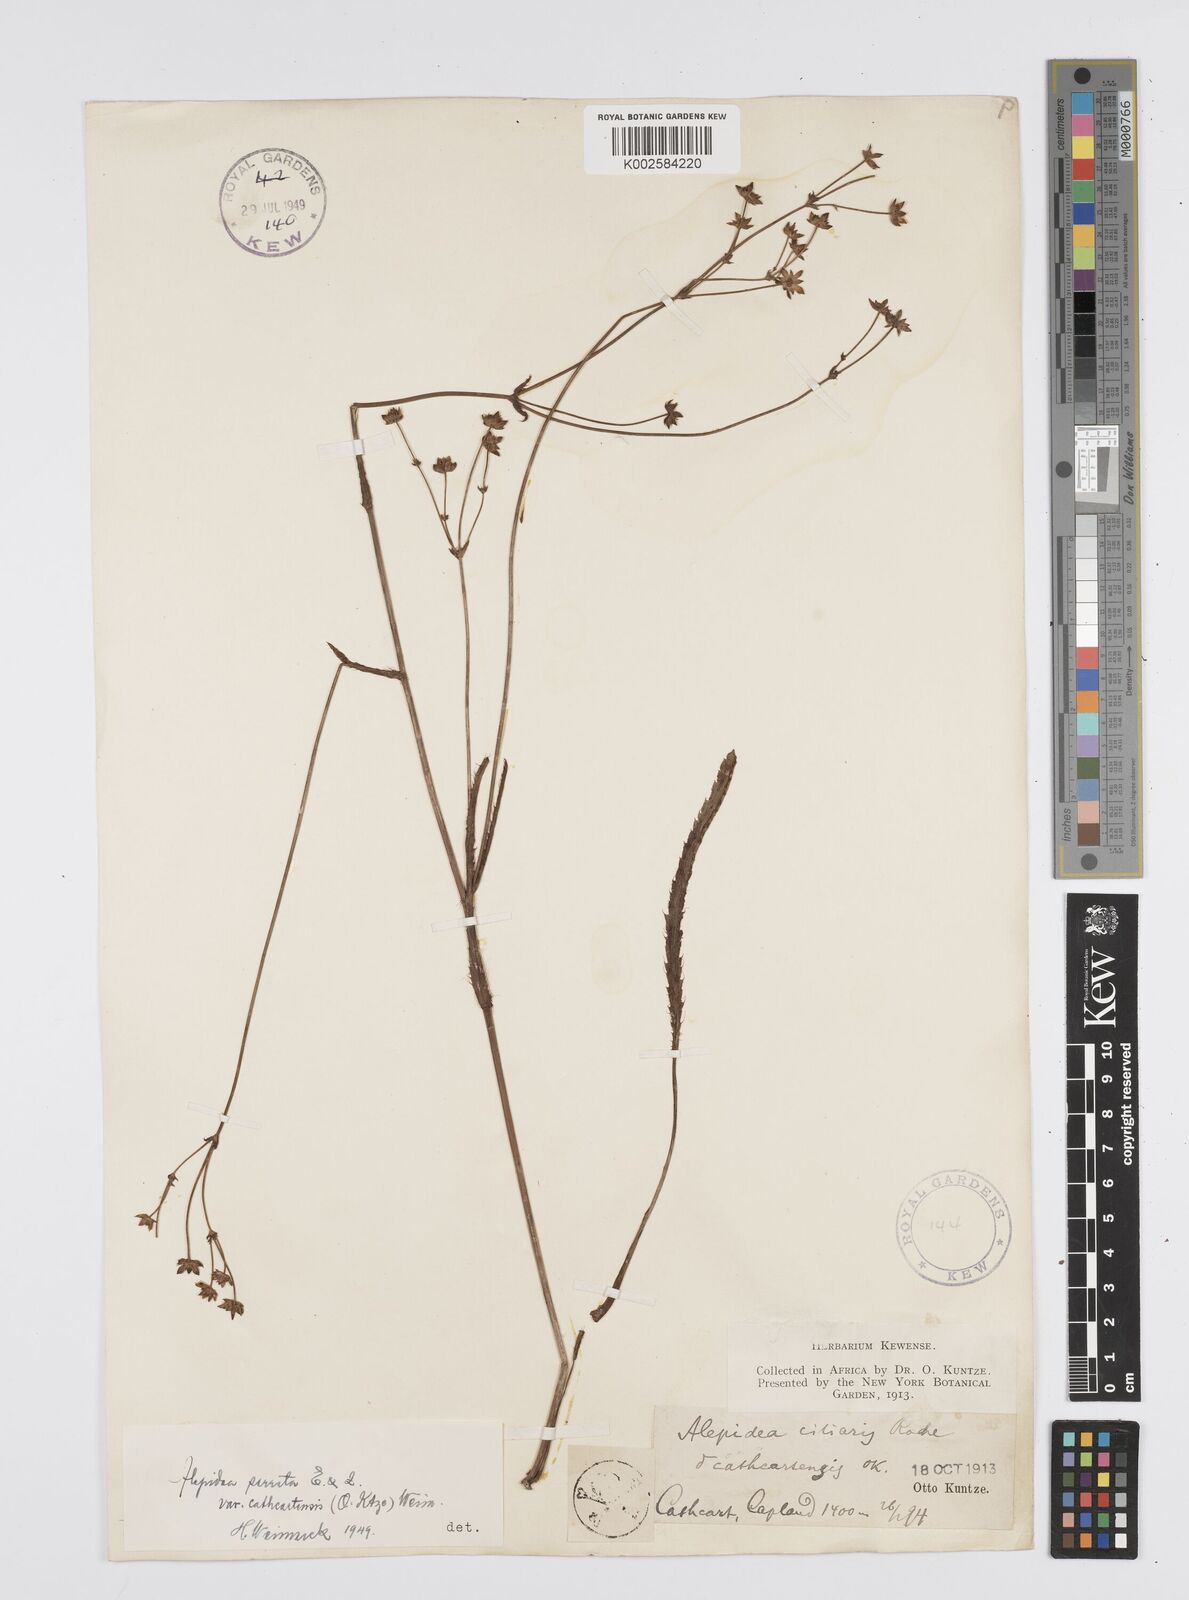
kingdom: Plantae
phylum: Tracheophyta
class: Magnoliopsida
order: Apiales
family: Apiaceae
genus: Alepidea
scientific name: Alepidea serrata
